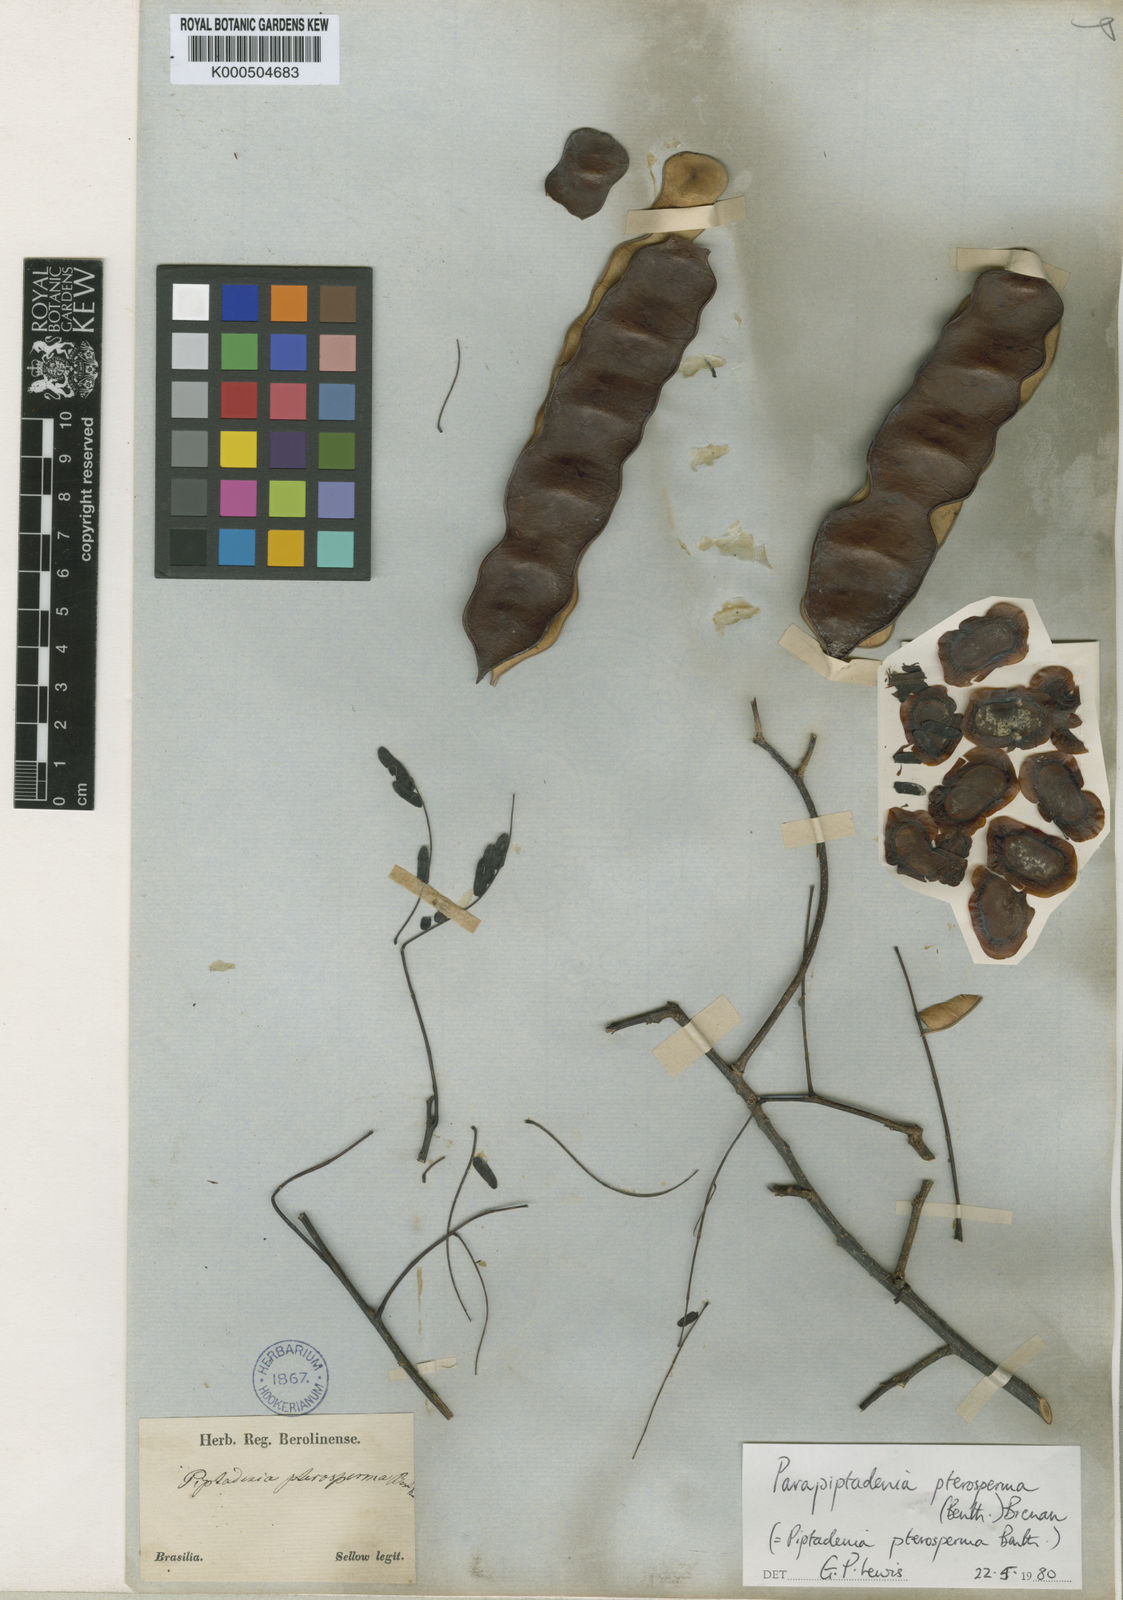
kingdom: Plantae
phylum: Tracheophyta
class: Magnoliopsida
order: Fabales
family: Fabaceae
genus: Parapiptadenia
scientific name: Parapiptadenia rigida
